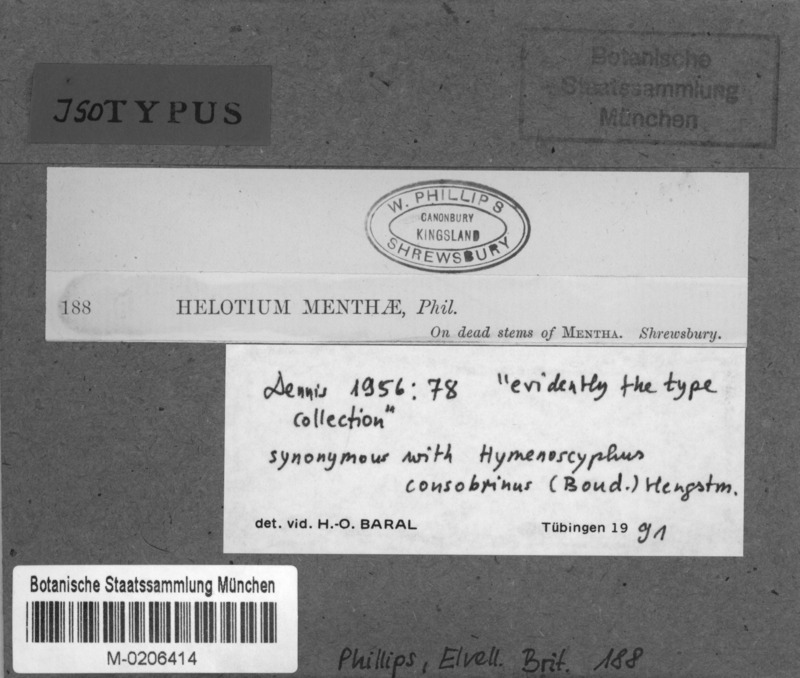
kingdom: Fungi
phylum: Ascomycota
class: Leotiomycetes
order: Helotiales
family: Helotiaceae
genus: Hymenoscyphus
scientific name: Hymenoscyphus menthae
